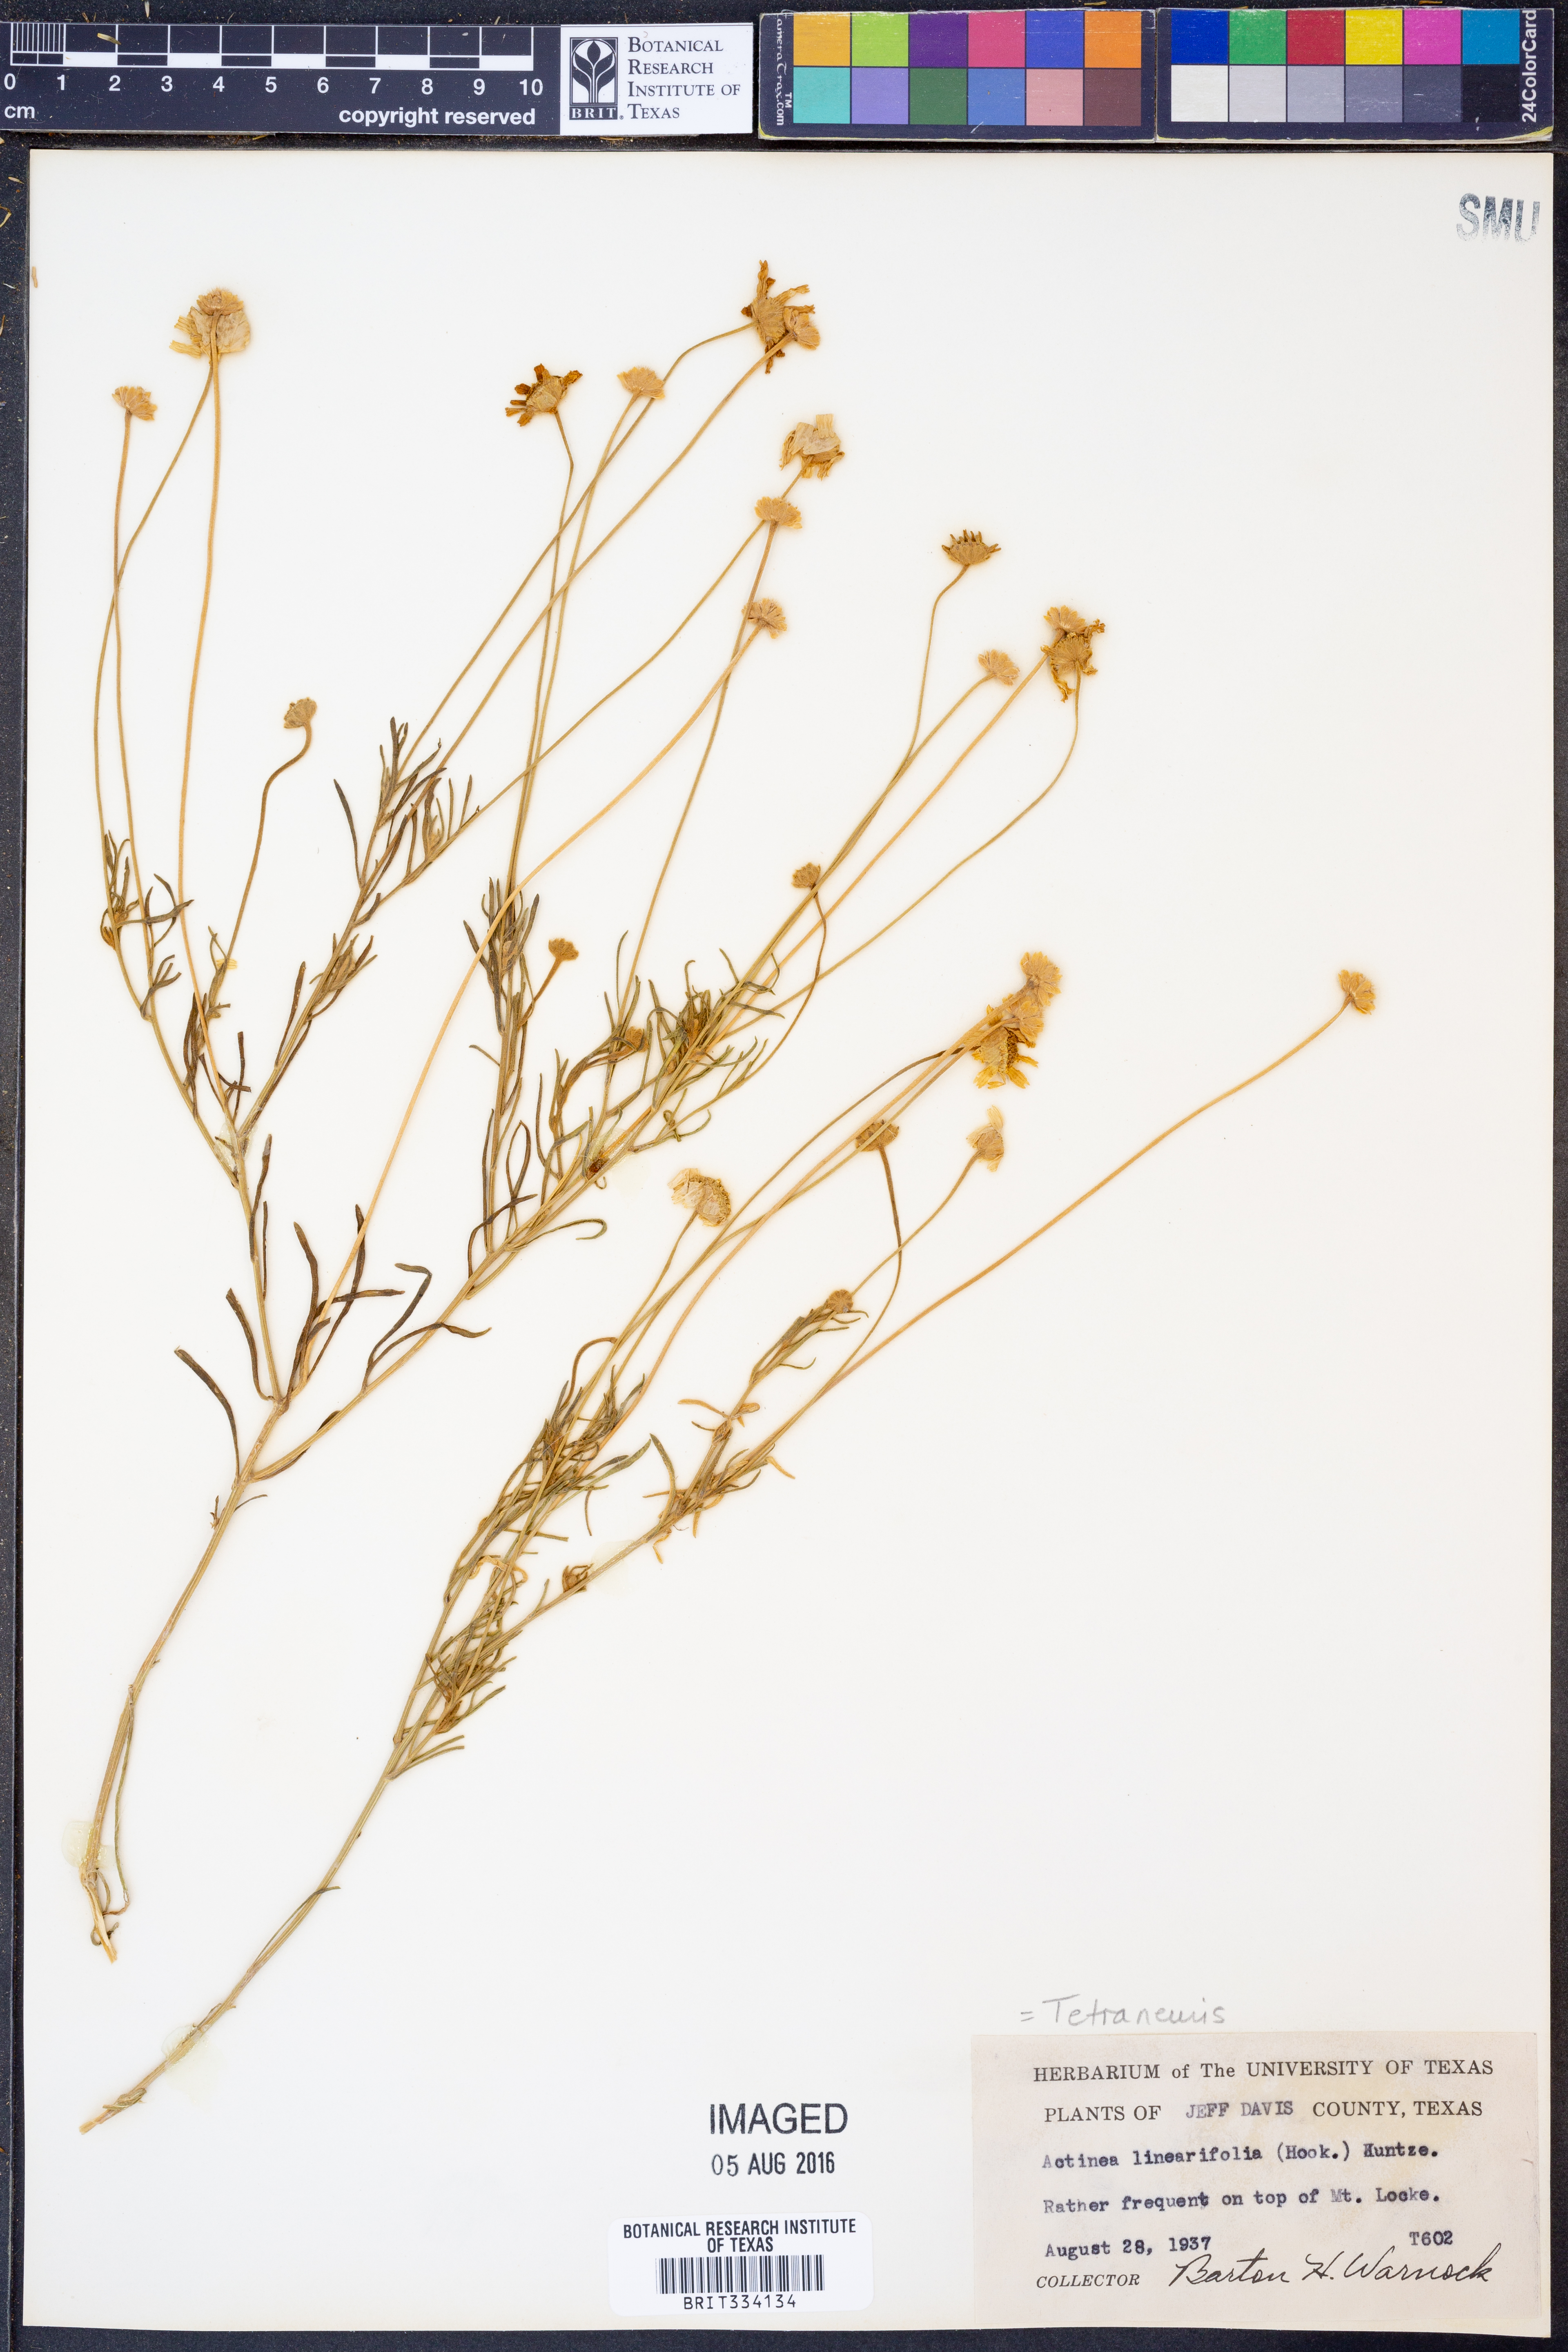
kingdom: Plantae
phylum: Tracheophyta
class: Magnoliopsida
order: Asterales
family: Asteraceae
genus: Tetraneuris
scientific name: Tetraneuris linearifolia
